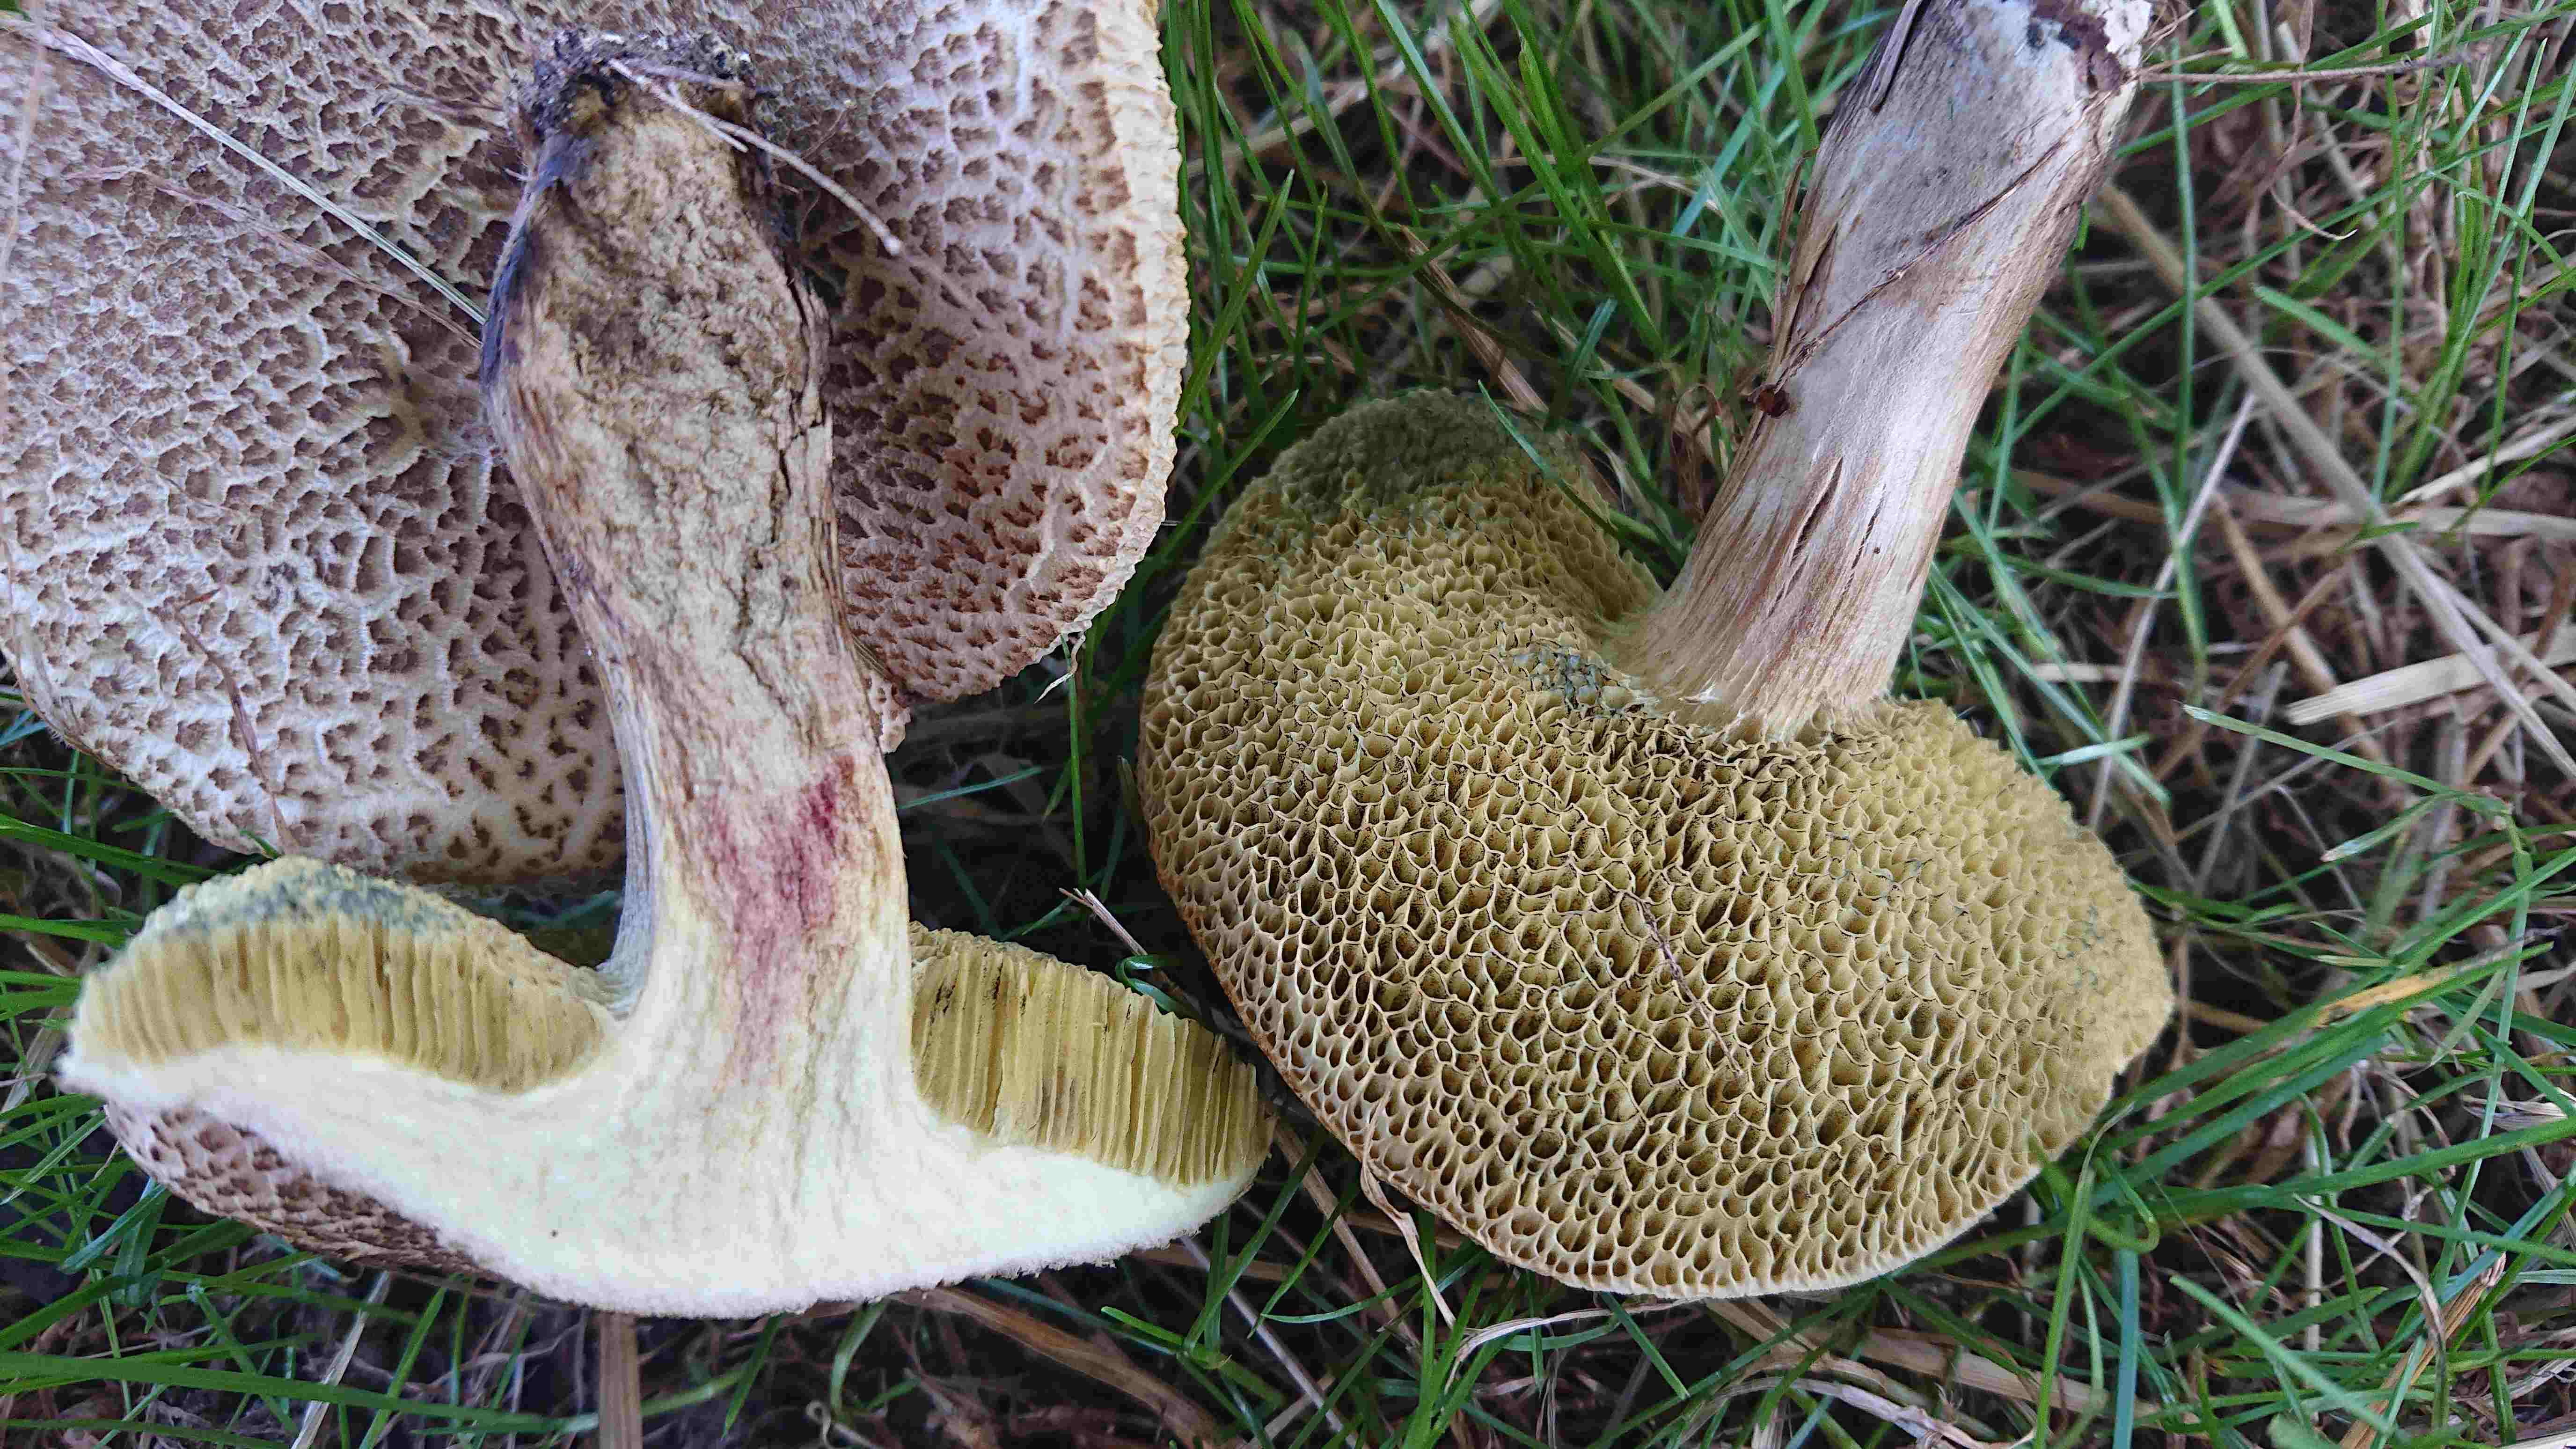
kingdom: Fungi
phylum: Basidiomycota
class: Agaricomycetes
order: Boletales
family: Boletaceae
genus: Xerocomellus
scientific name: Xerocomellus porosporus
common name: hvidsprukken rørhat
